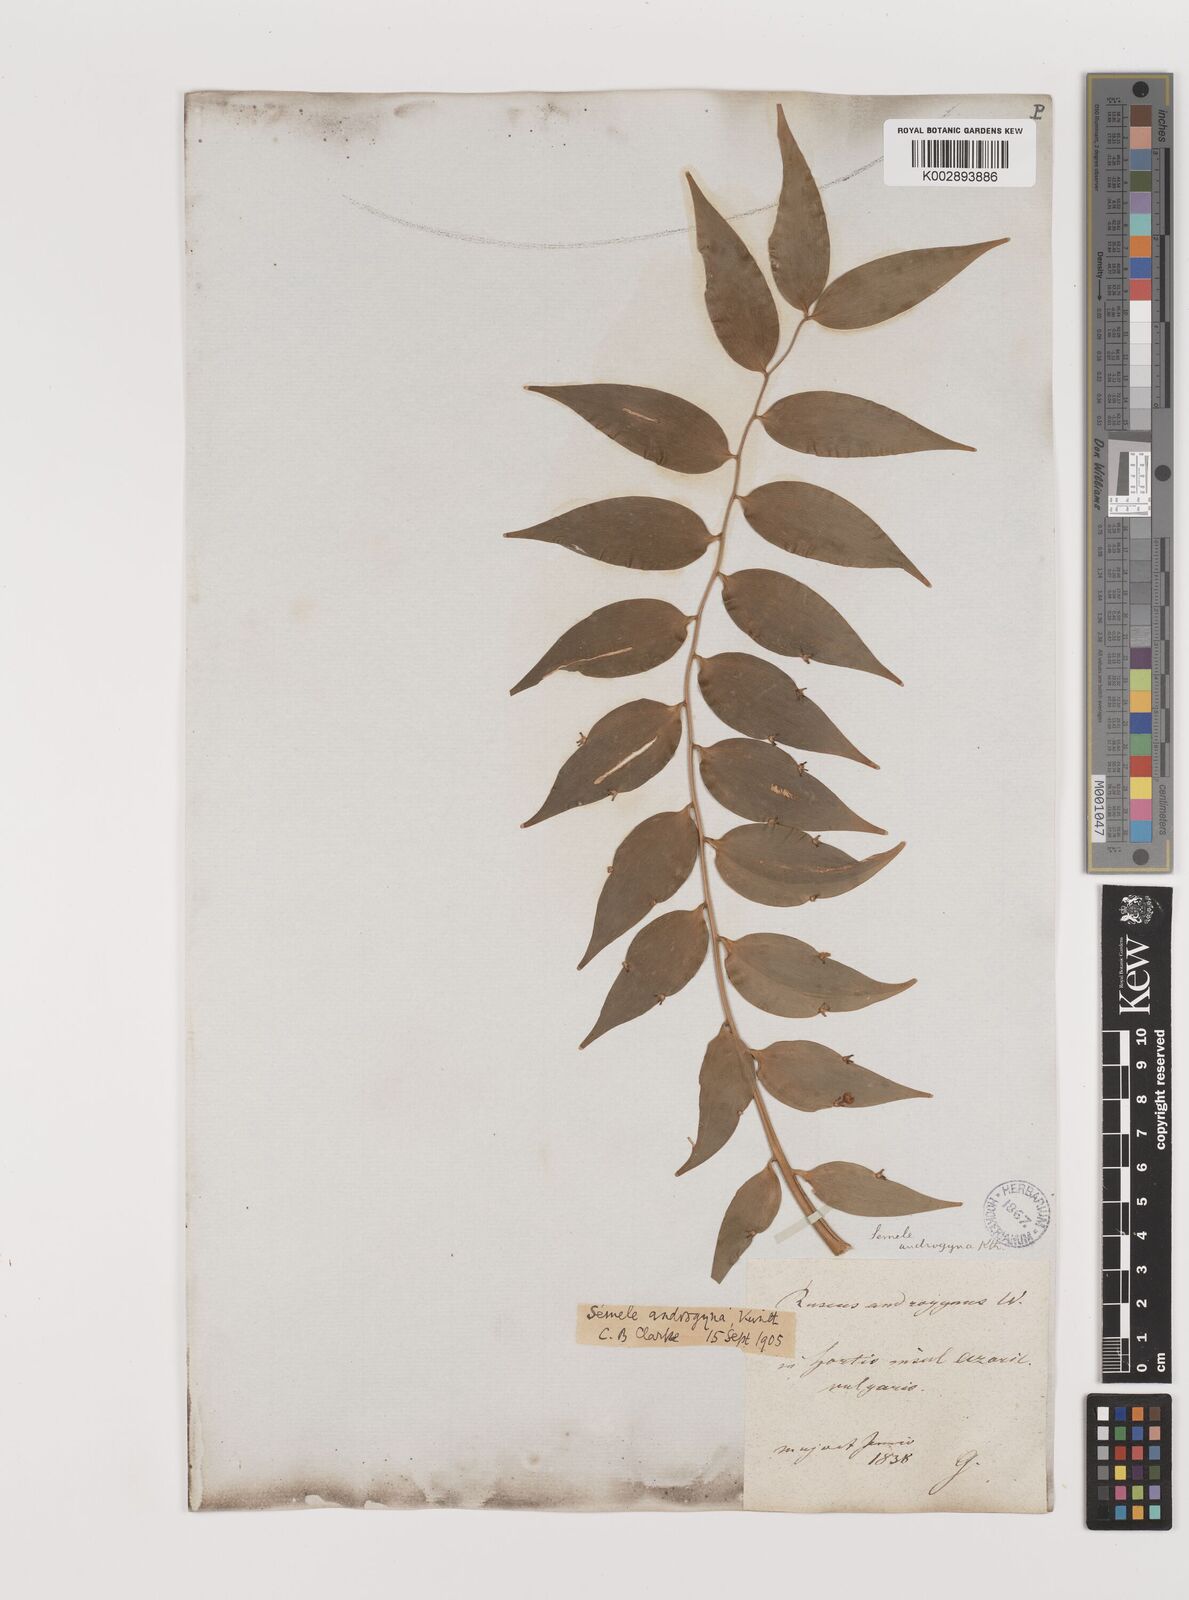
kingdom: Plantae
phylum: Tracheophyta
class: Liliopsida
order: Asparagales
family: Asparagaceae
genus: Semele
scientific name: Semele androgyna
